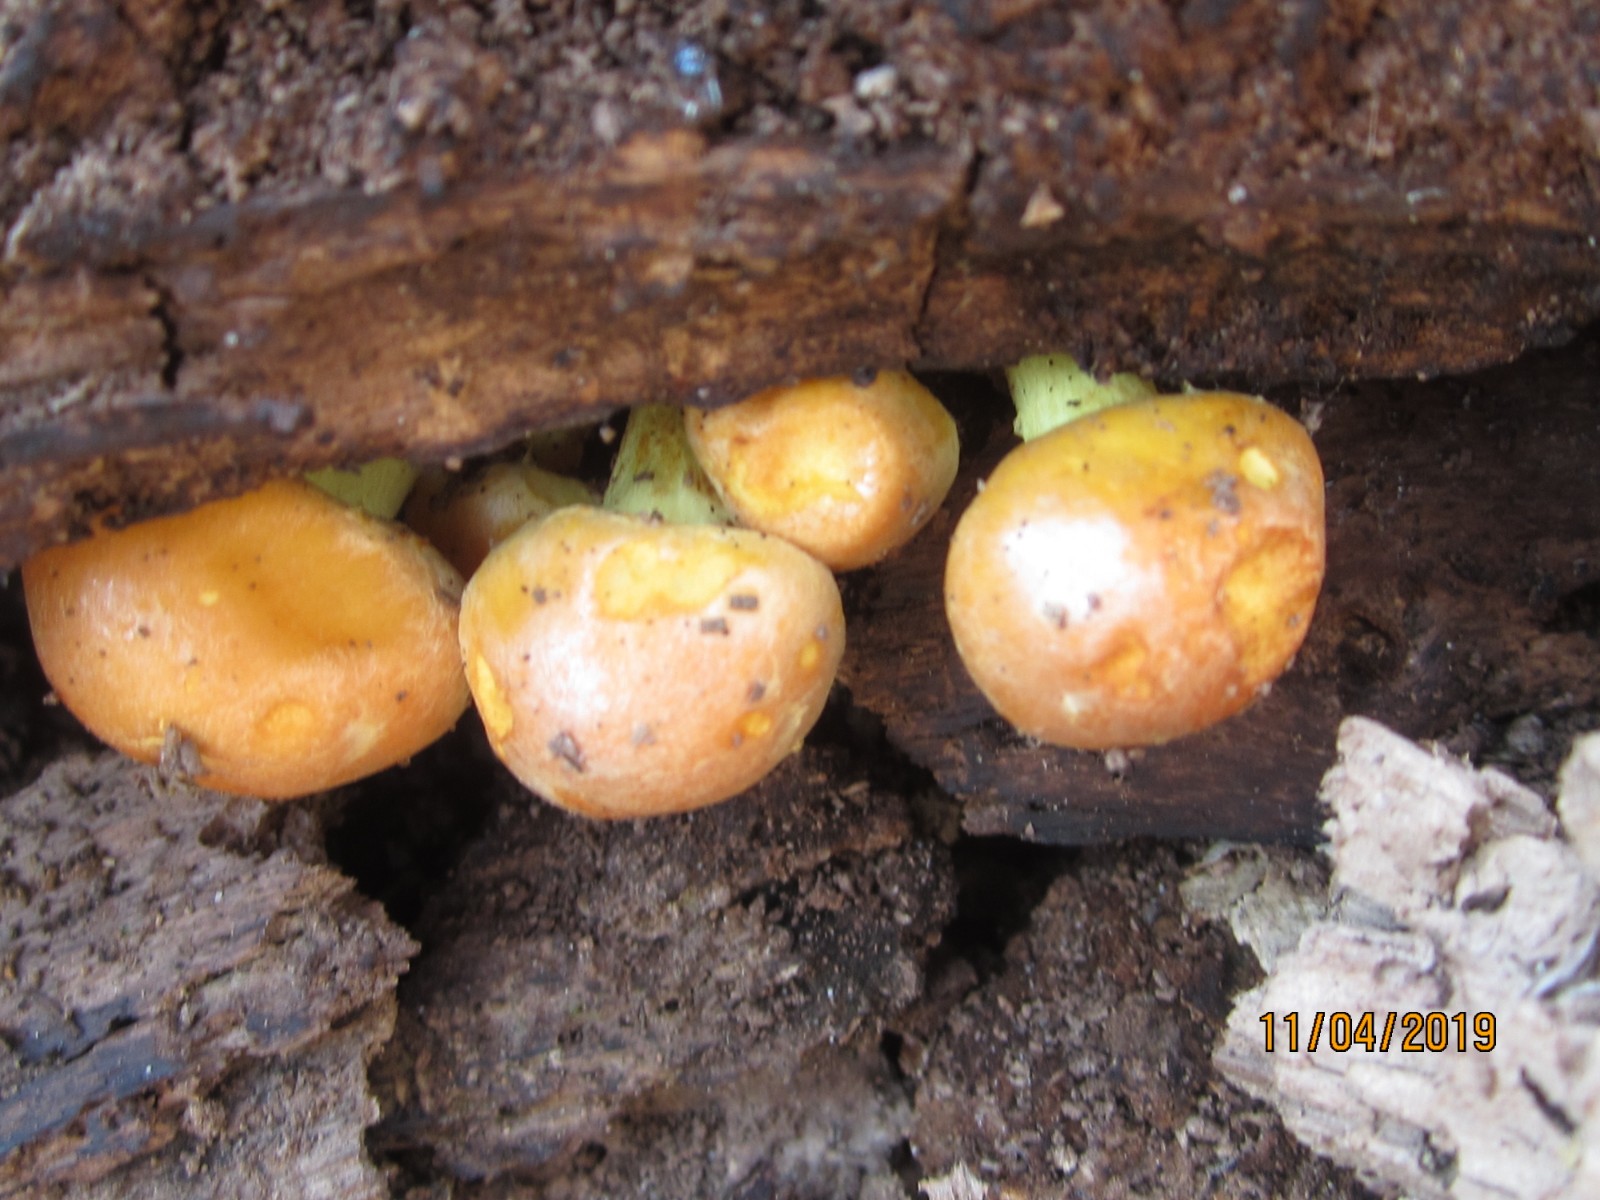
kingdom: Fungi
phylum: Basidiomycota
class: Agaricomycetes
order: Agaricales
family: Strophariaceae
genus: Hypholoma
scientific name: Hypholoma fasciculare
